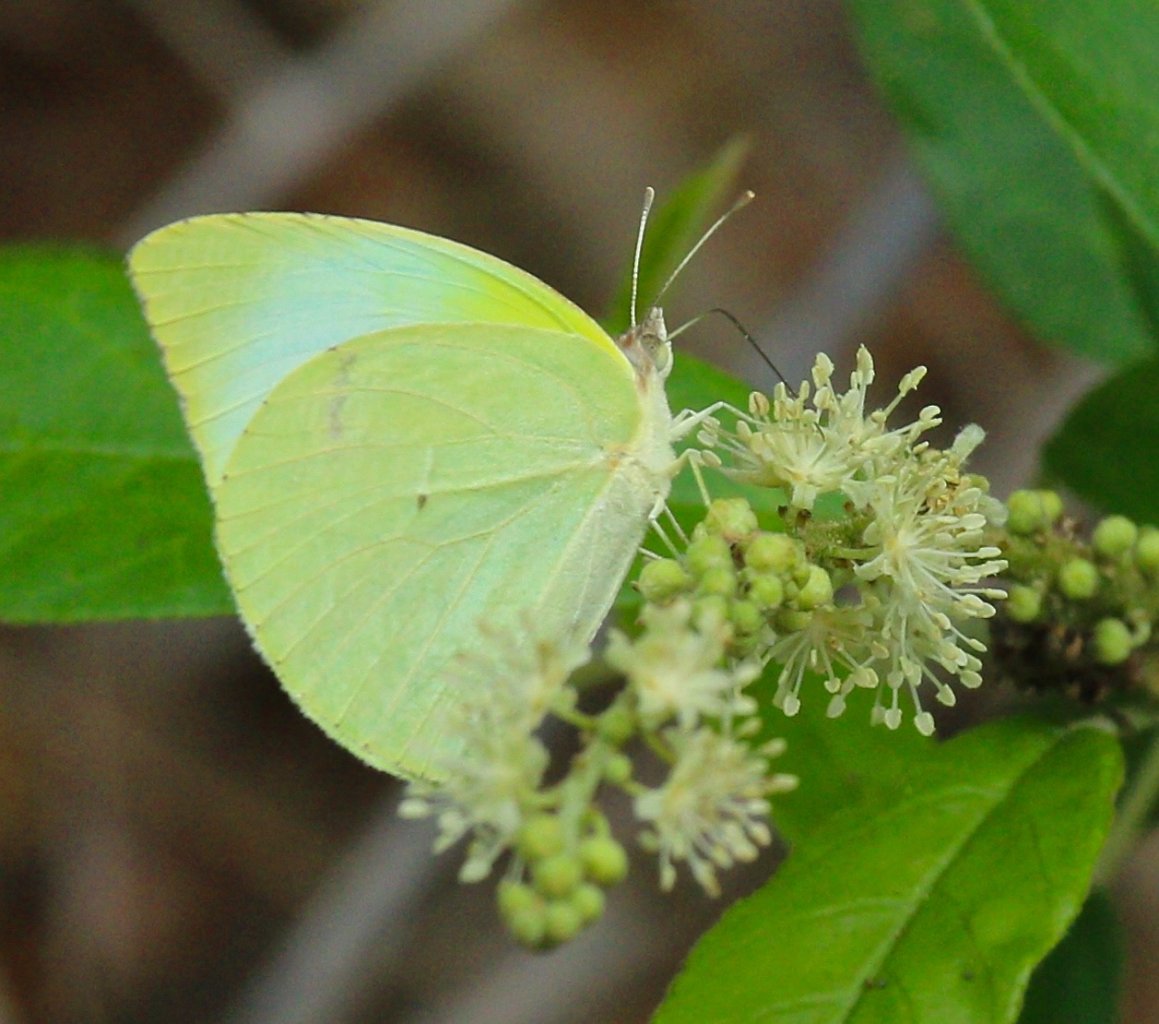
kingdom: Animalia
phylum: Arthropoda
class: Insecta
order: Lepidoptera
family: Pieridae
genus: Kricogonia
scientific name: Kricogonia lyside
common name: Lyside Sulphur
